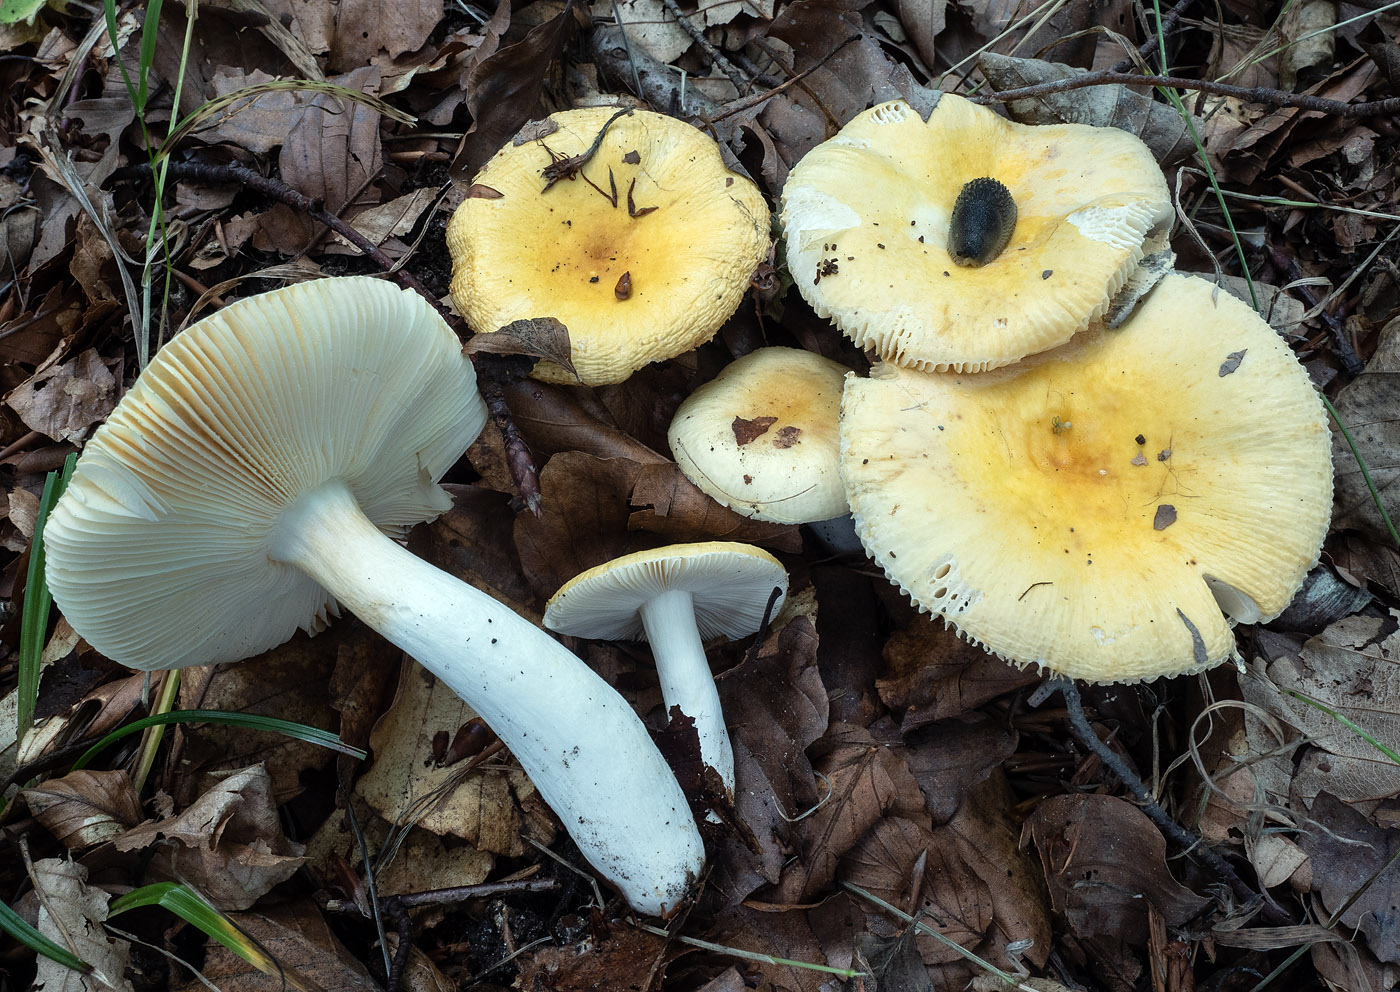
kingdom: Fungi
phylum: Basidiomycota
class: Agaricomycetes
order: Russulales
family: Russulaceae
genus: Russula
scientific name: Russula solaris
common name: sol-skørhat
